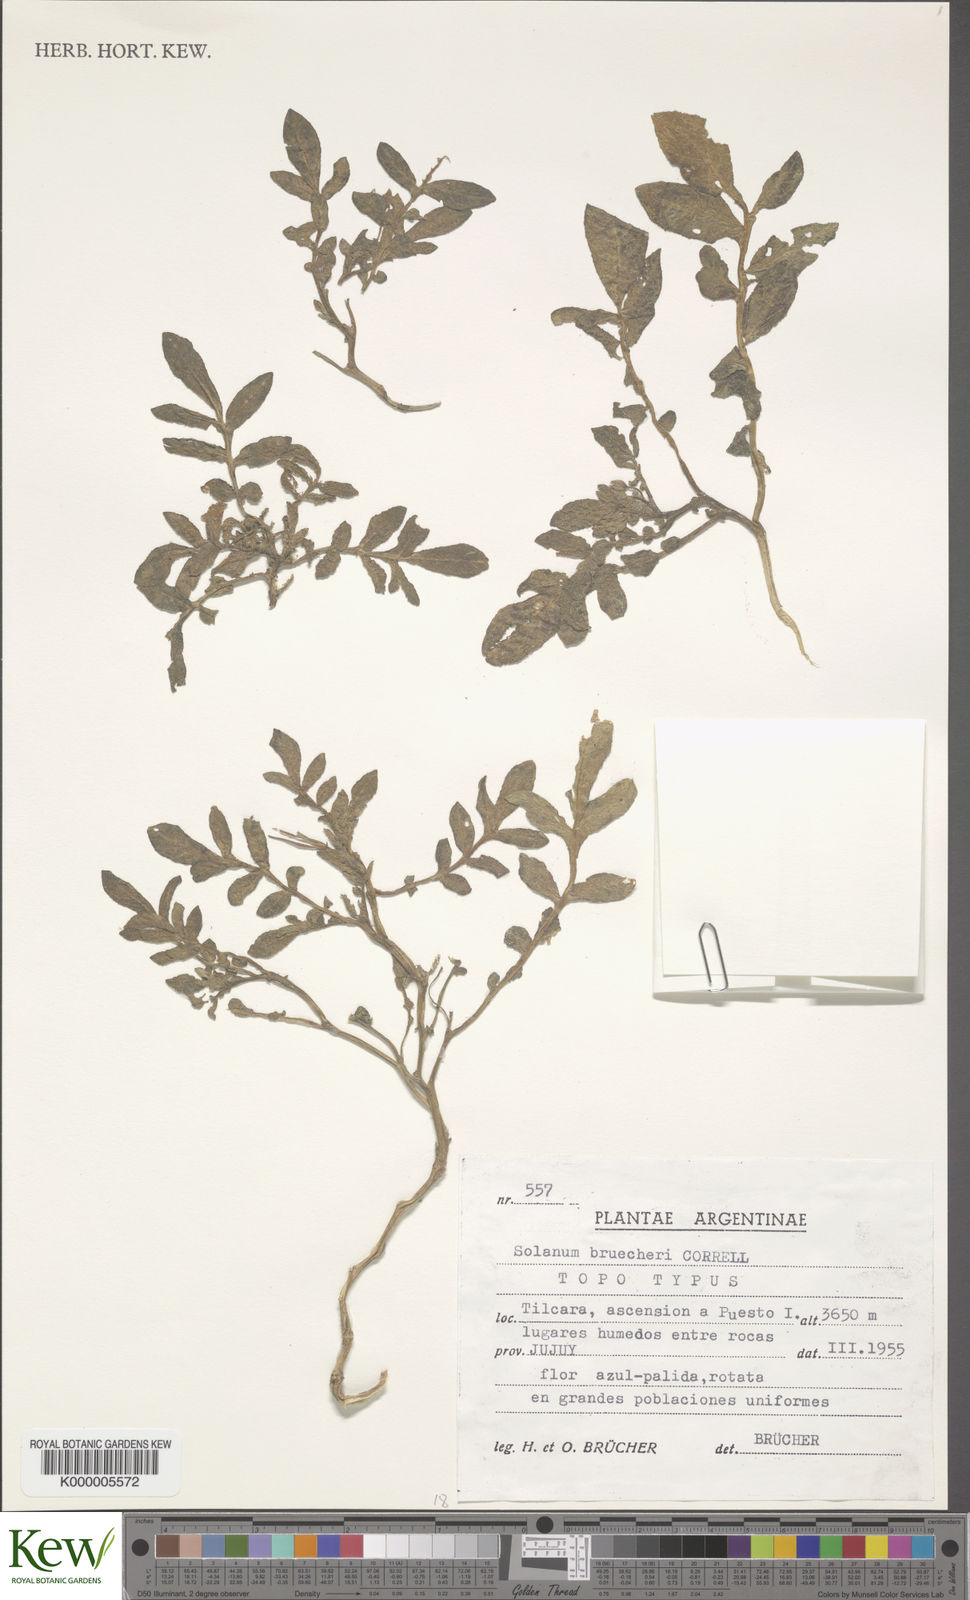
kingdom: Plantae
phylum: Tracheophyta
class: Magnoliopsida
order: Solanales
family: Solanaceae
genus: Solanum
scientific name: Solanum brevicaule
